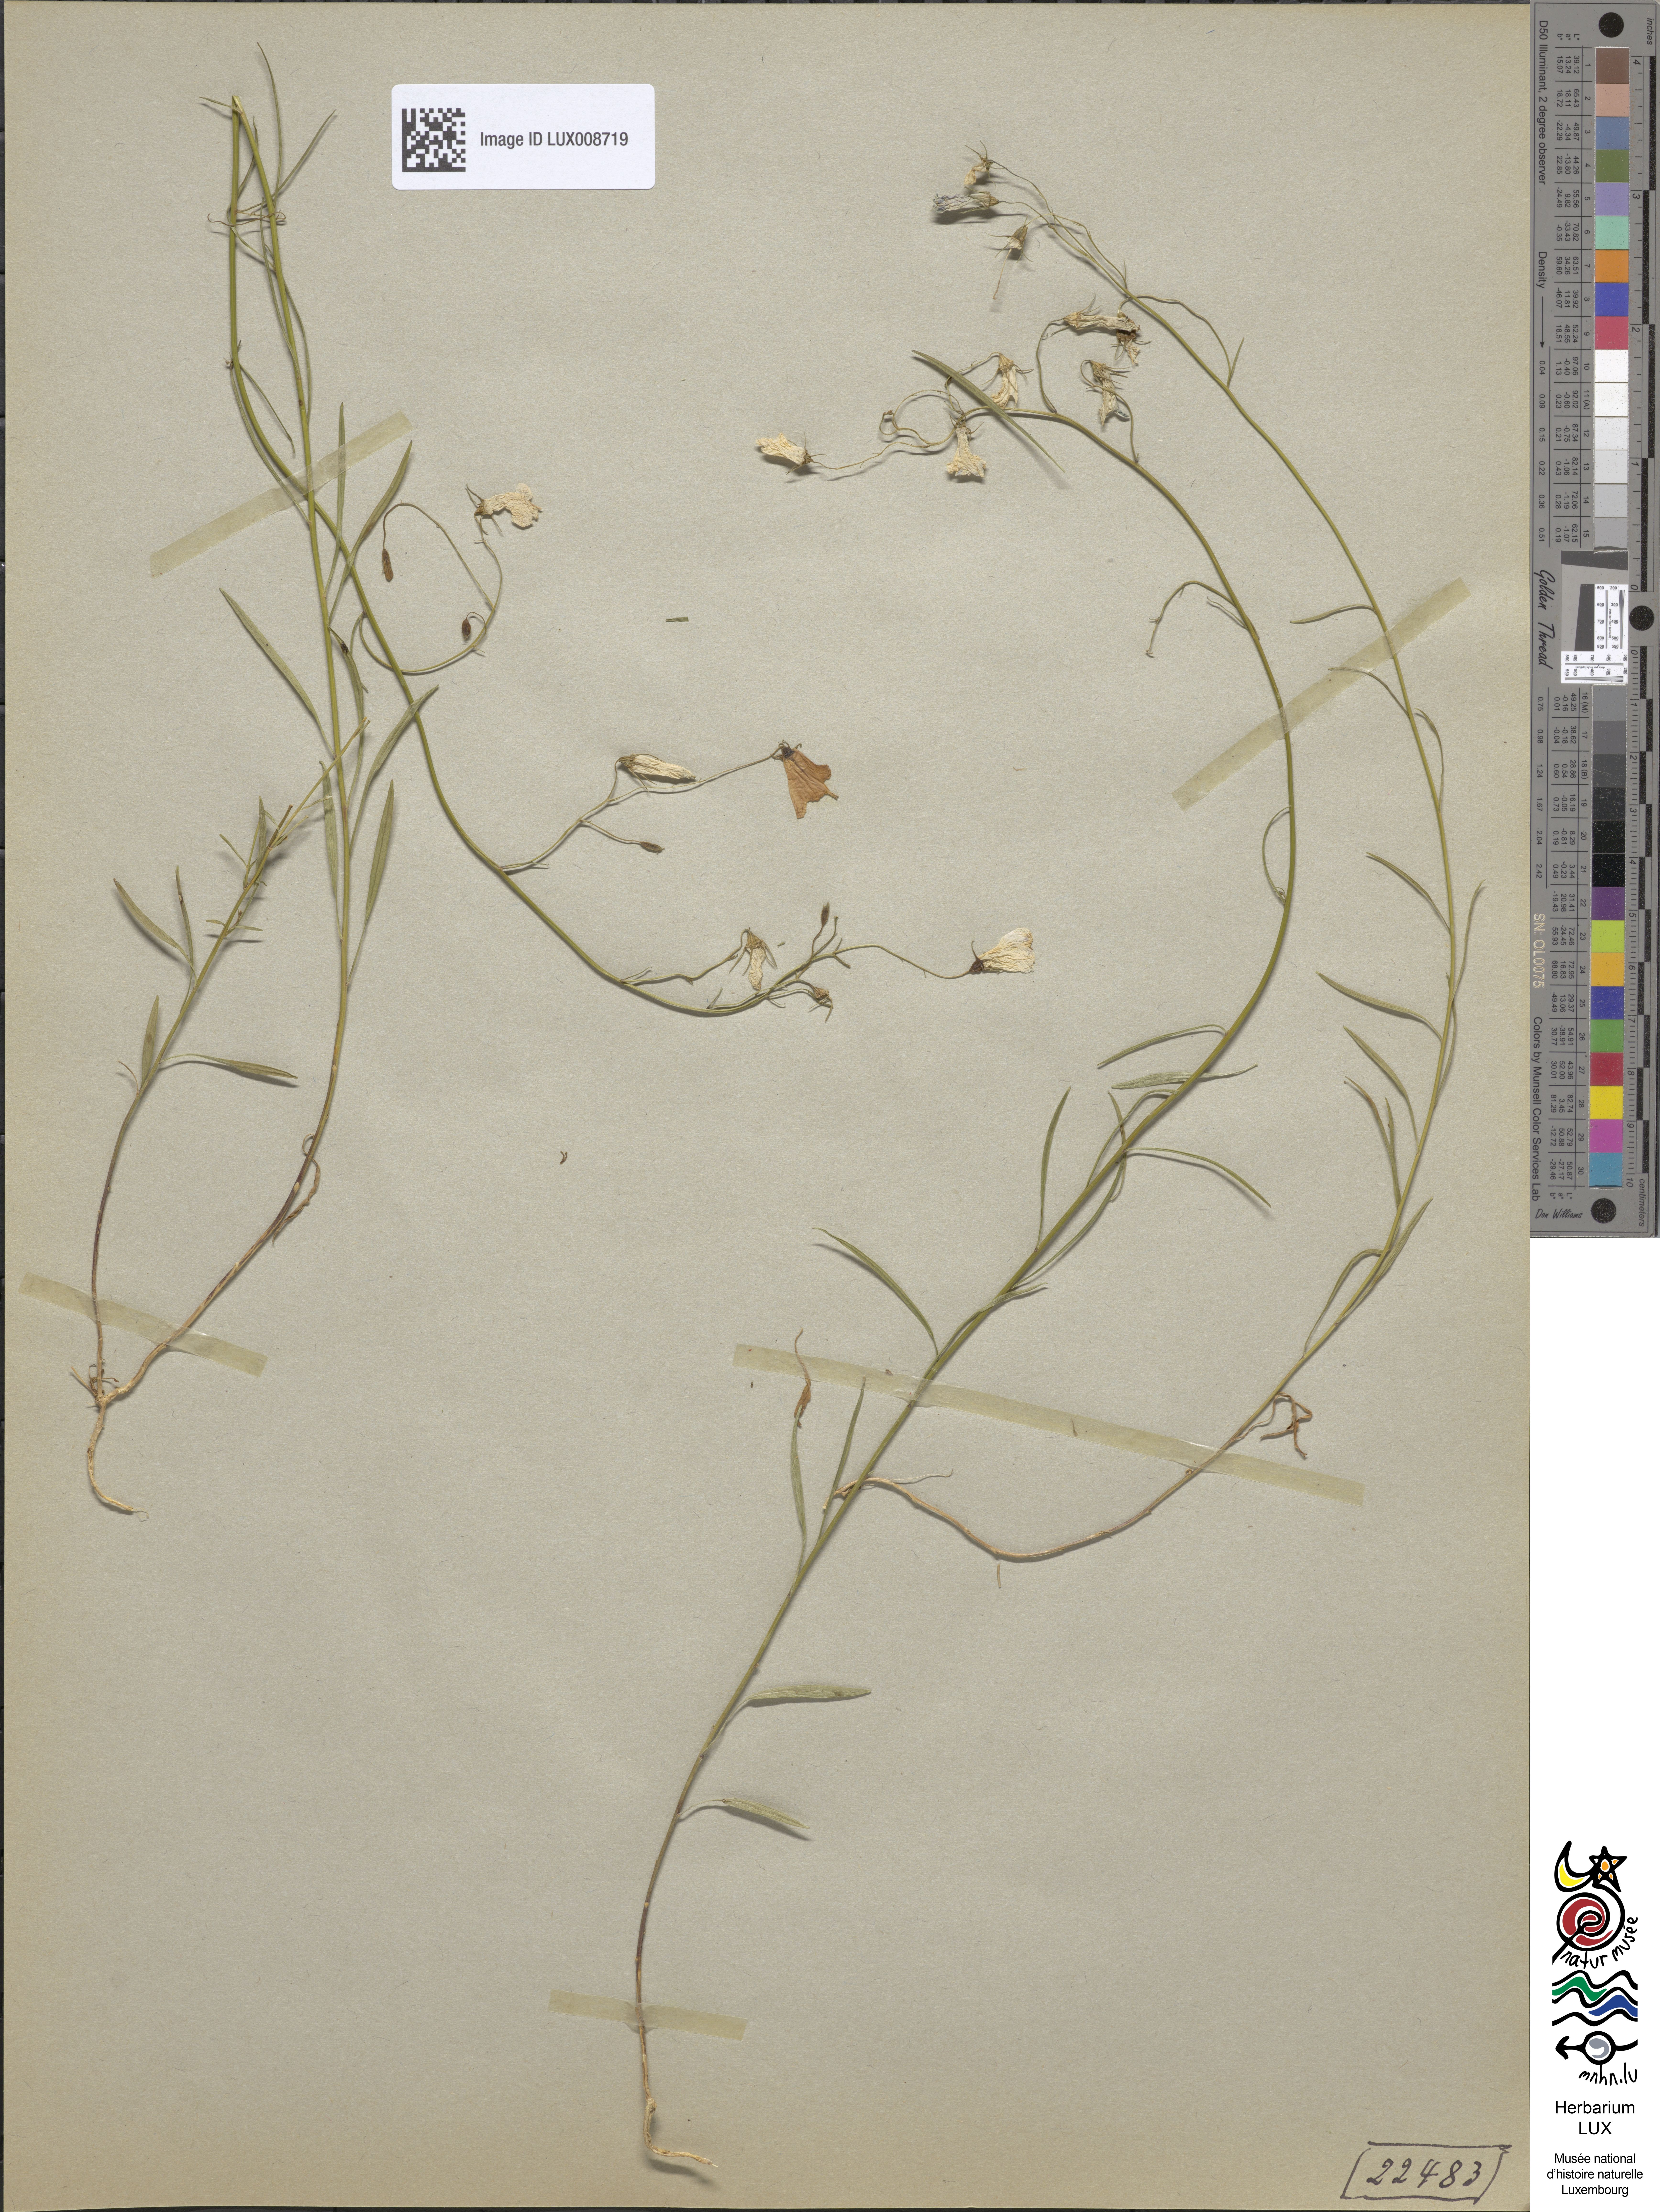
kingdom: Plantae
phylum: Tracheophyta
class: Magnoliopsida
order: Asterales
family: Campanulaceae
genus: Campanula
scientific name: Campanula rotundifolia
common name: Harebell
